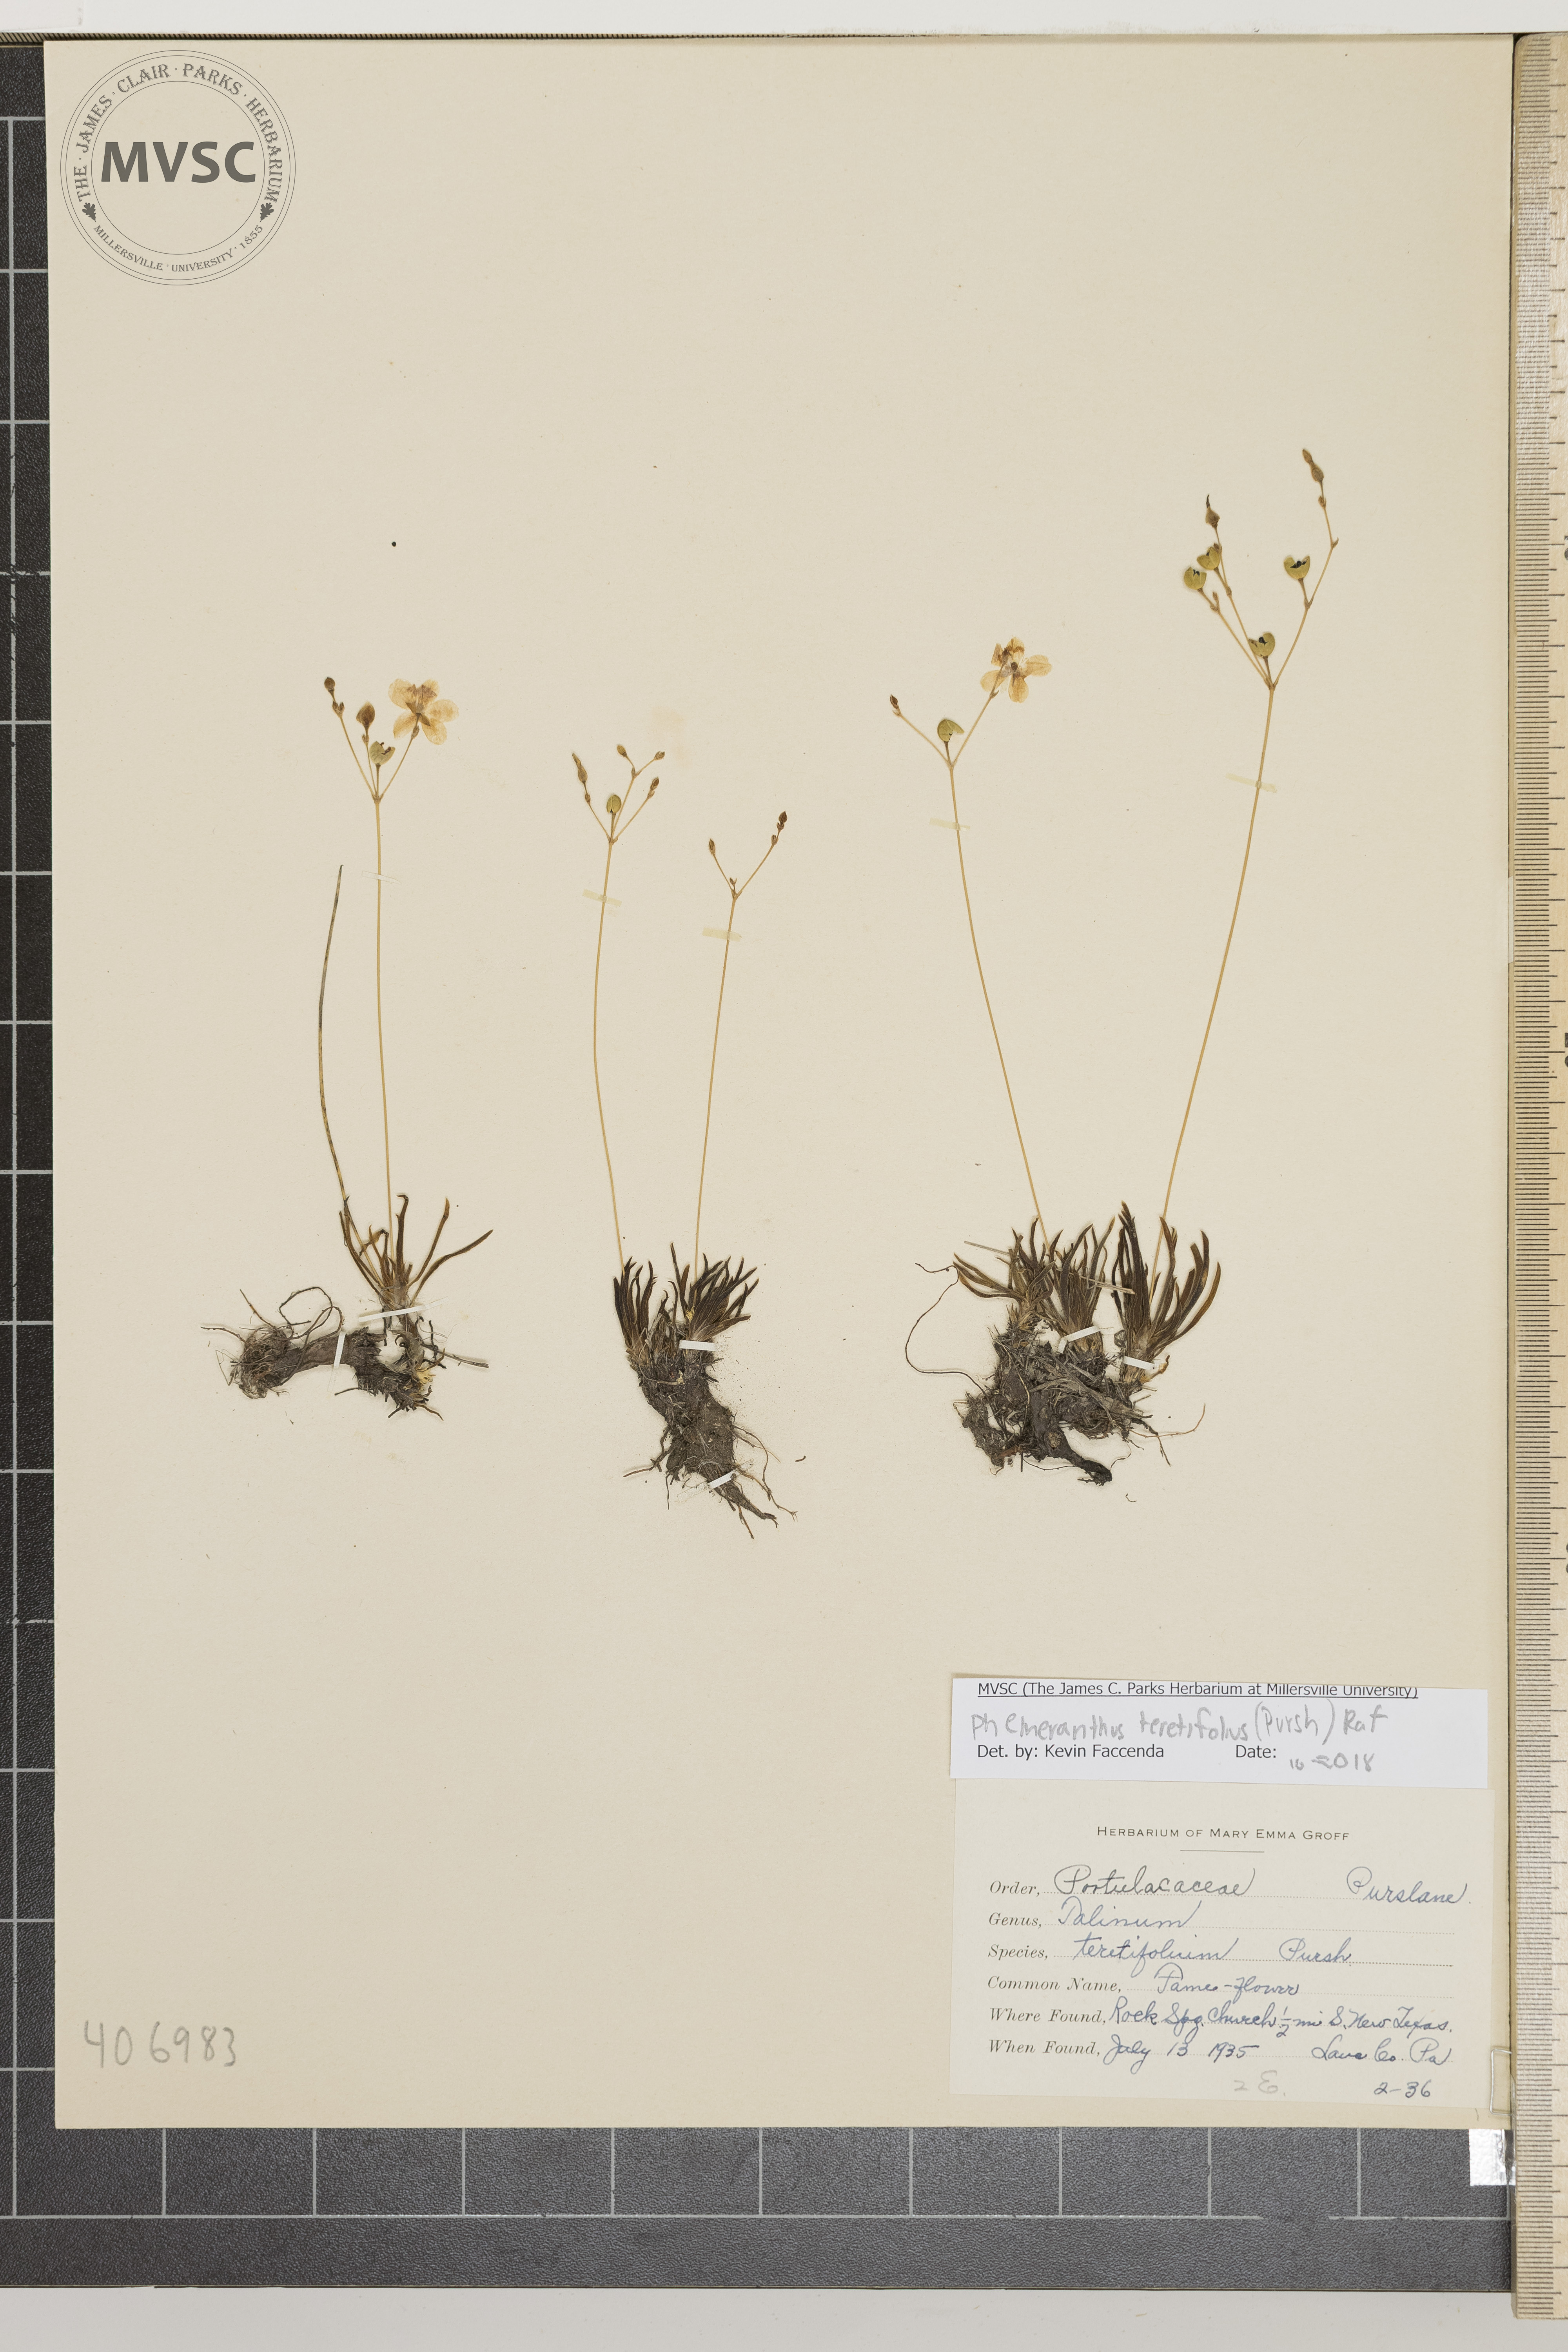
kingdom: Plantae
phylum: Tracheophyta
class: Magnoliopsida
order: Caryophyllales
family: Montiaceae
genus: Phemeranthus
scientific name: Phemeranthus teretifolius
